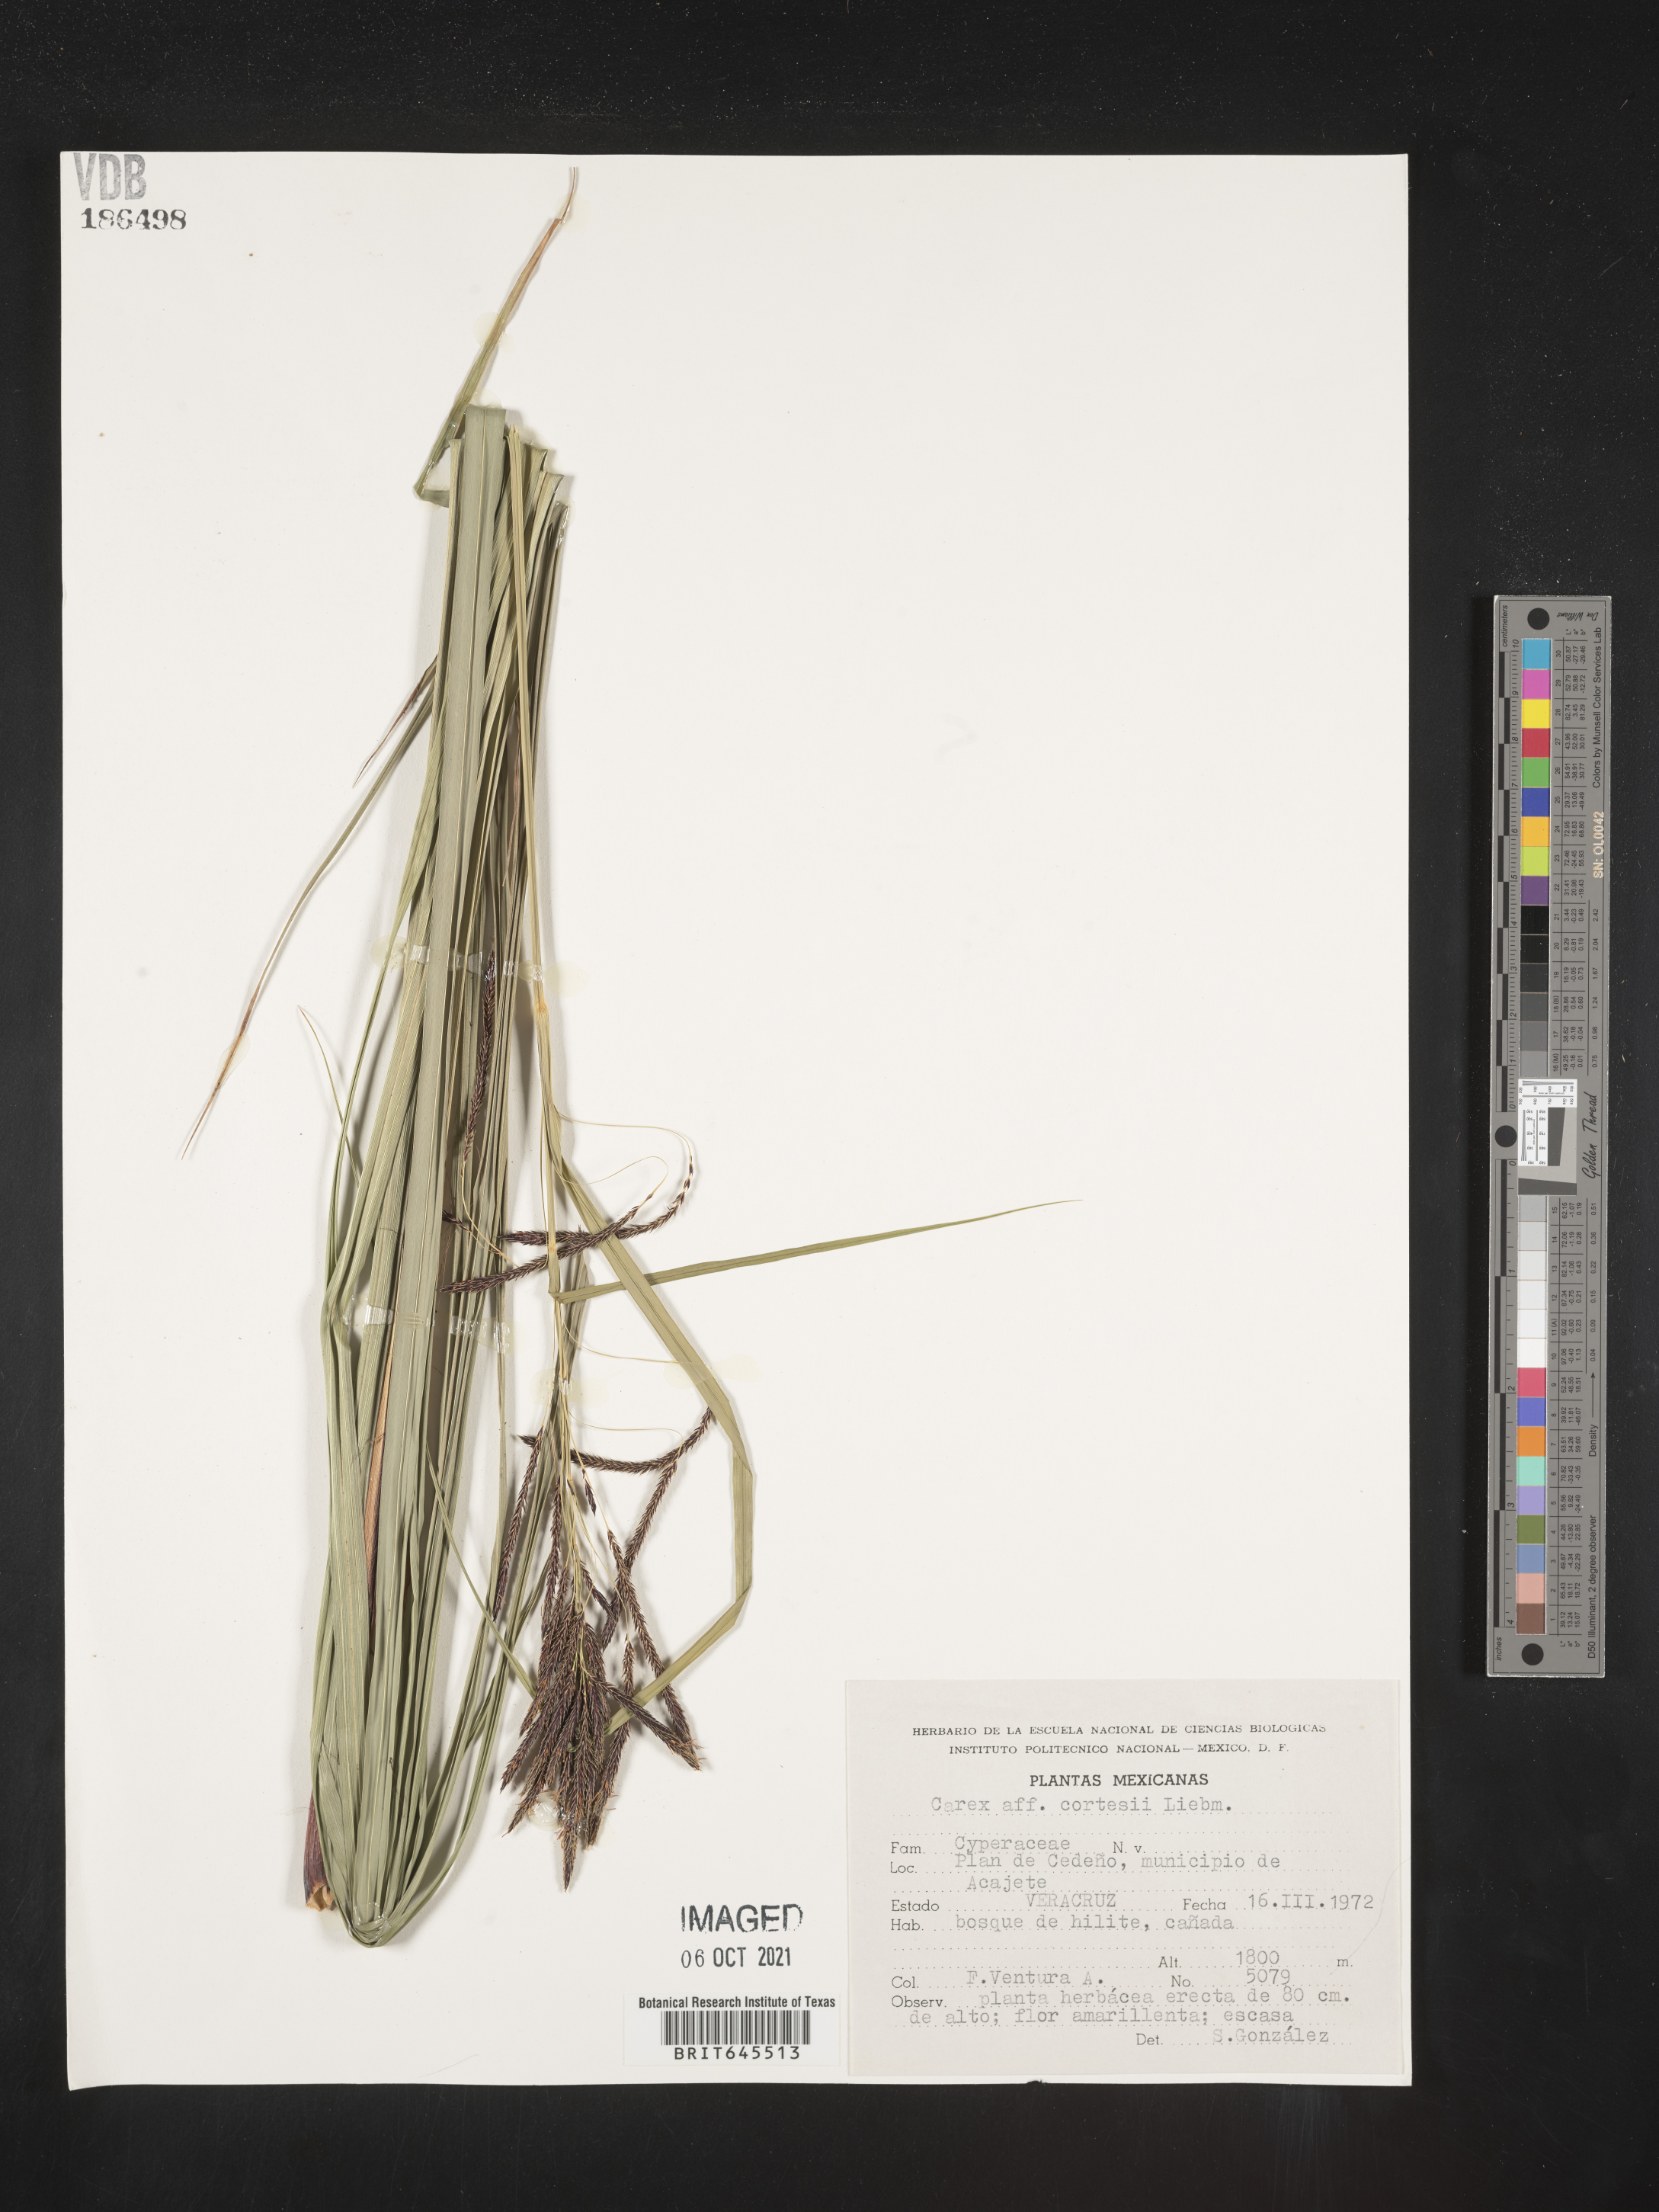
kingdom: Plantae
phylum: Tracheophyta
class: Liliopsida
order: Poales
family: Cyperaceae
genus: Carex
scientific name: Carex
